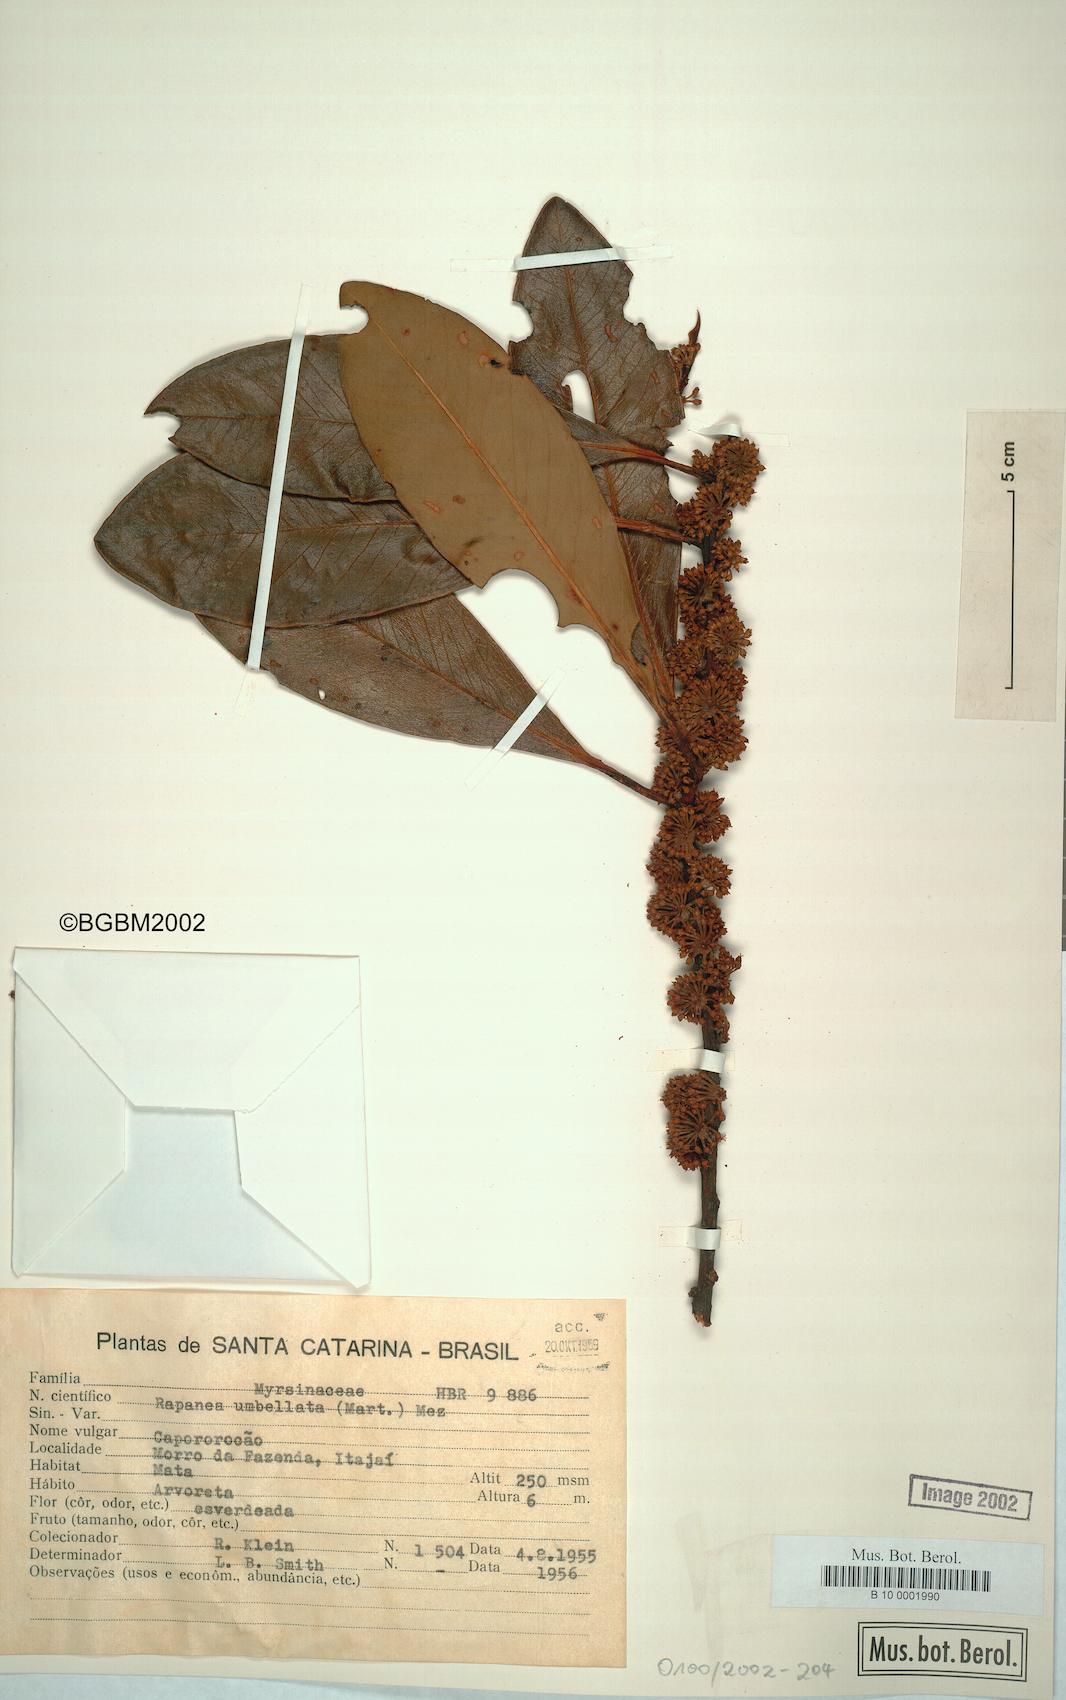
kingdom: Plantae
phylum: Tracheophyta
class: Magnoliopsida
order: Ericales
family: Primulaceae
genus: Myrsine
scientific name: Myrsine umbellata
